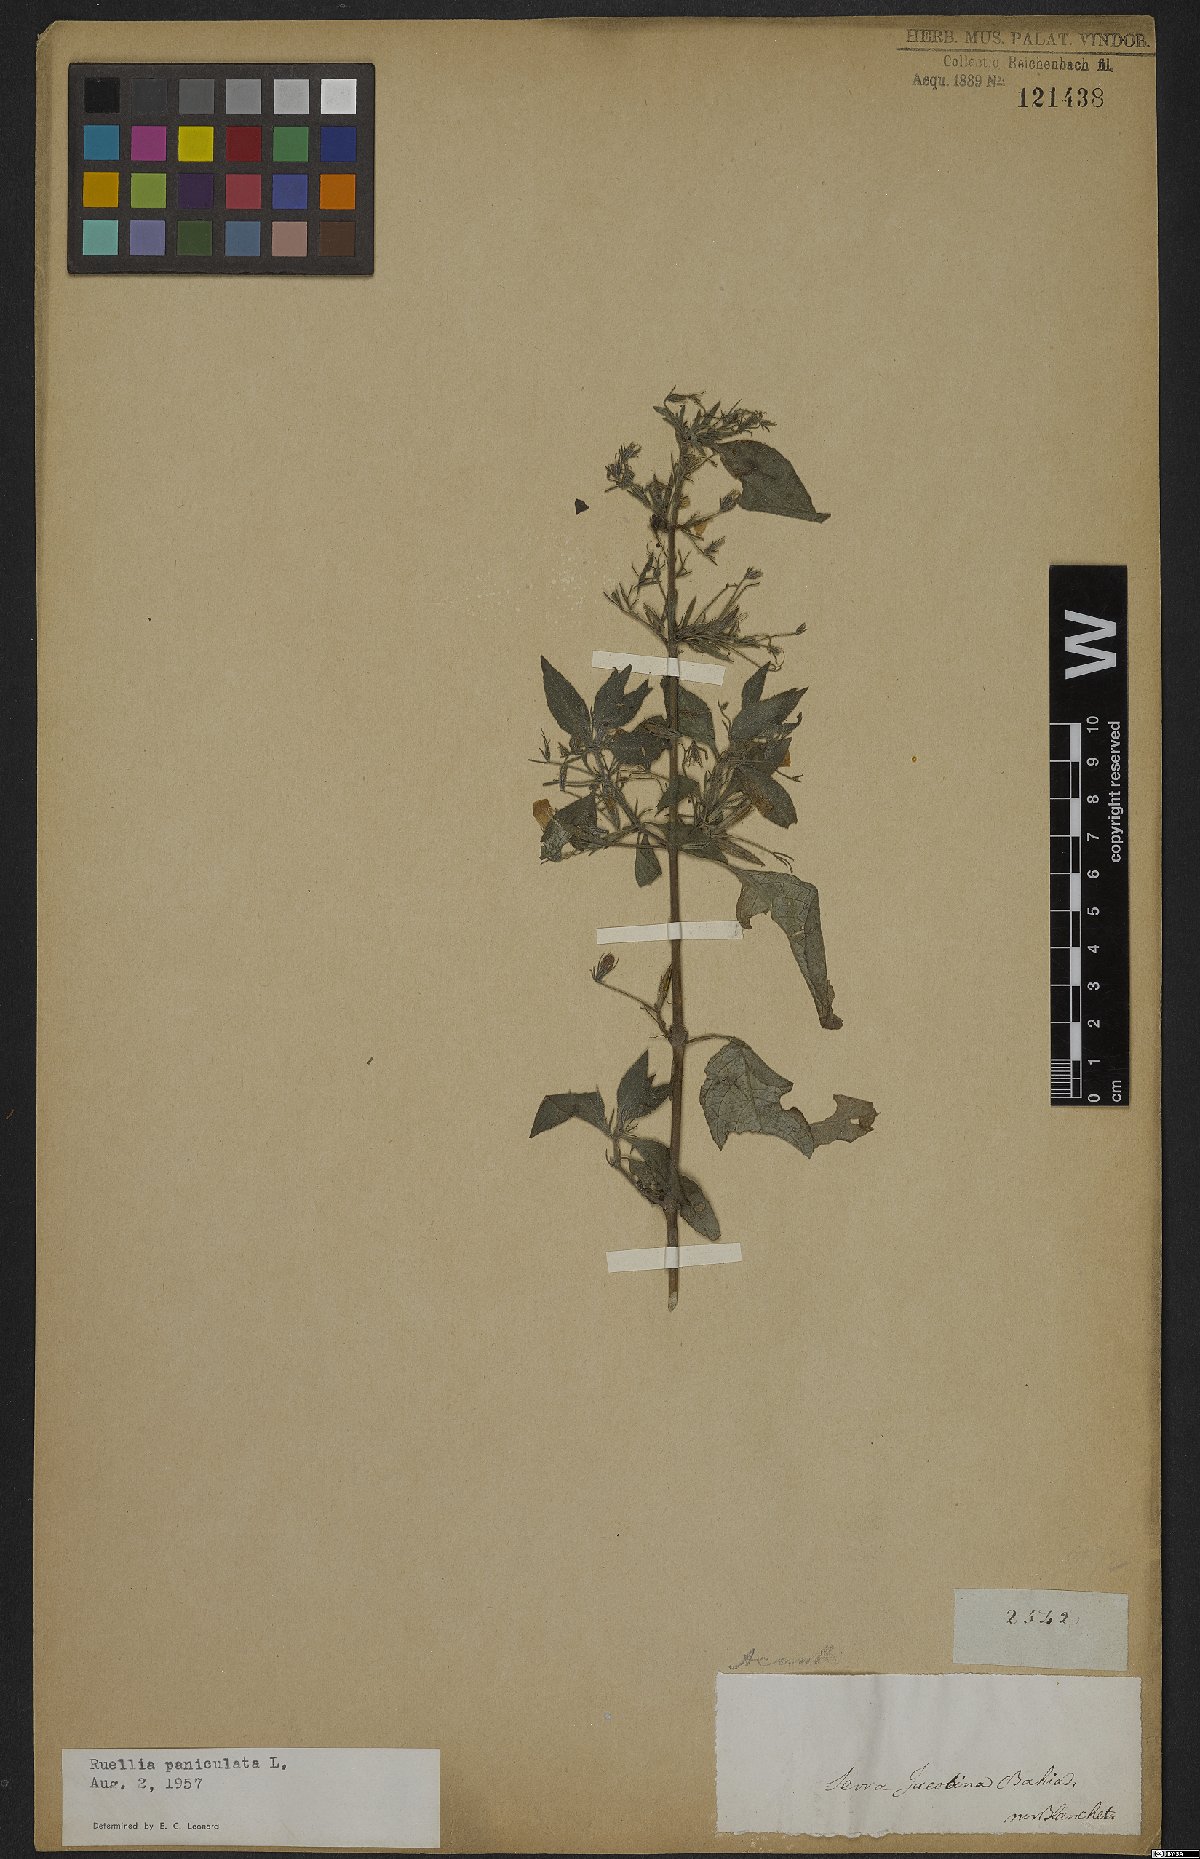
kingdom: Plantae
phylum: Tracheophyta
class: Magnoliopsida
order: Lamiales
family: Acanthaceae
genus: Barleria
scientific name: Barleria tomentosa
